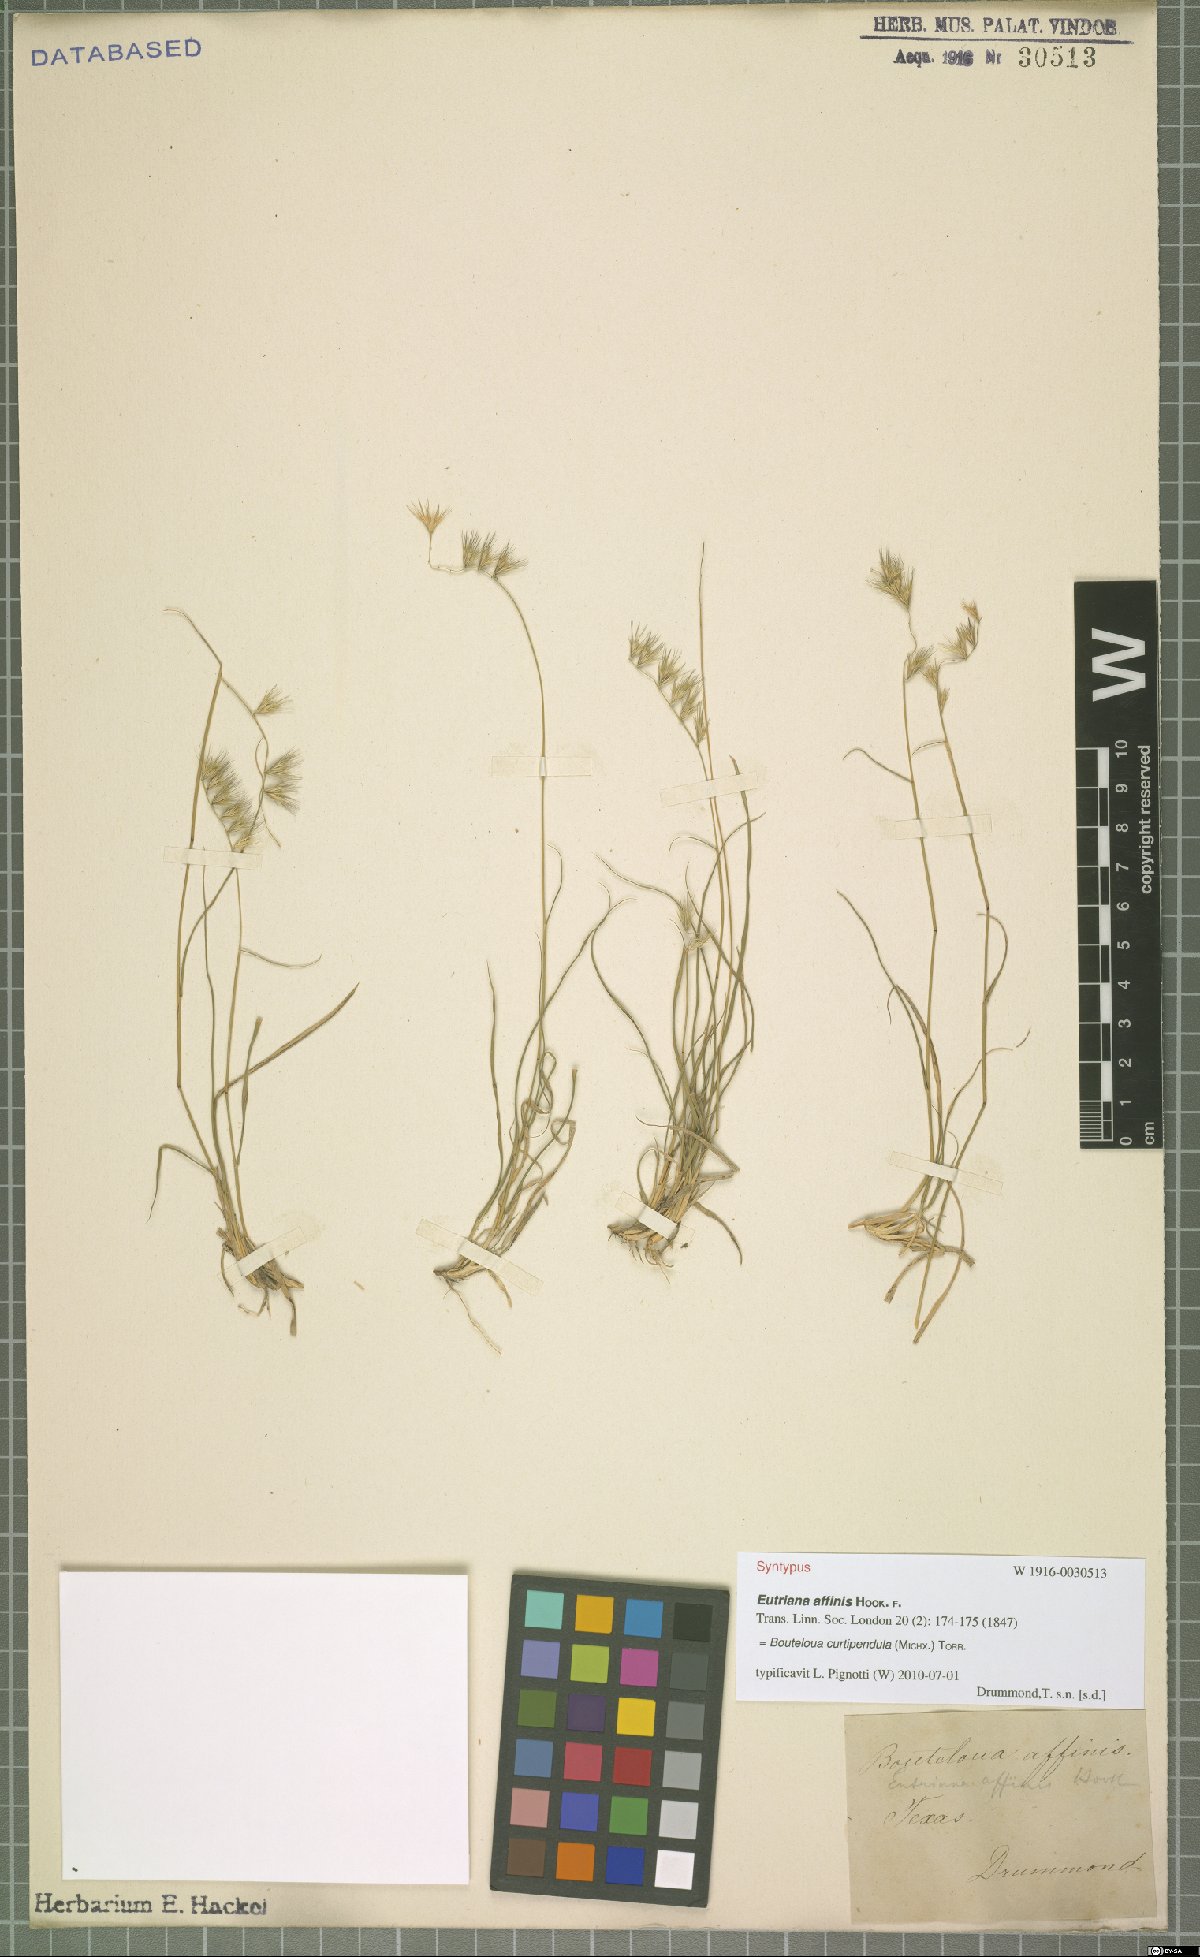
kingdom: Plantae
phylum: Tracheophyta
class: Liliopsida
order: Poales
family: Poaceae
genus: Bouteloua
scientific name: Bouteloua curtipendula
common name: Side-oats grama
